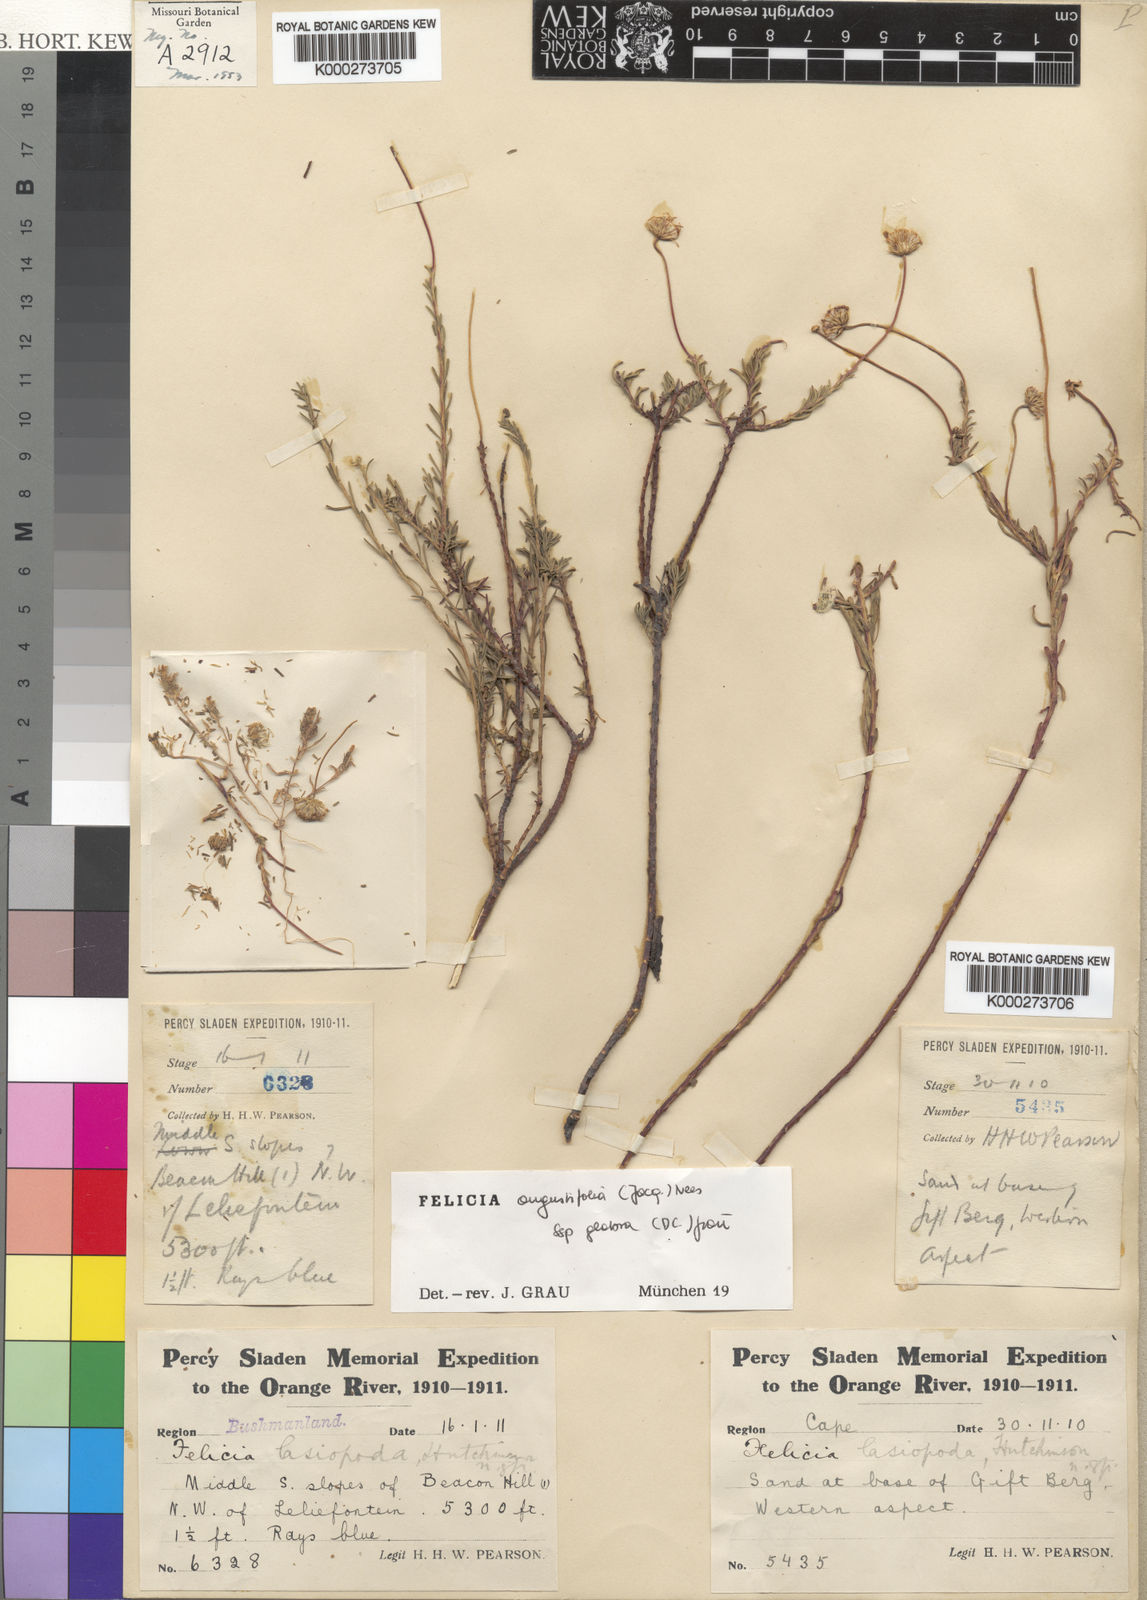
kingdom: Plantae
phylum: Tracheophyta
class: Magnoliopsida
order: Asterales
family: Asteraceae
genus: Felicia
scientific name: Felicia hyssopifolia
